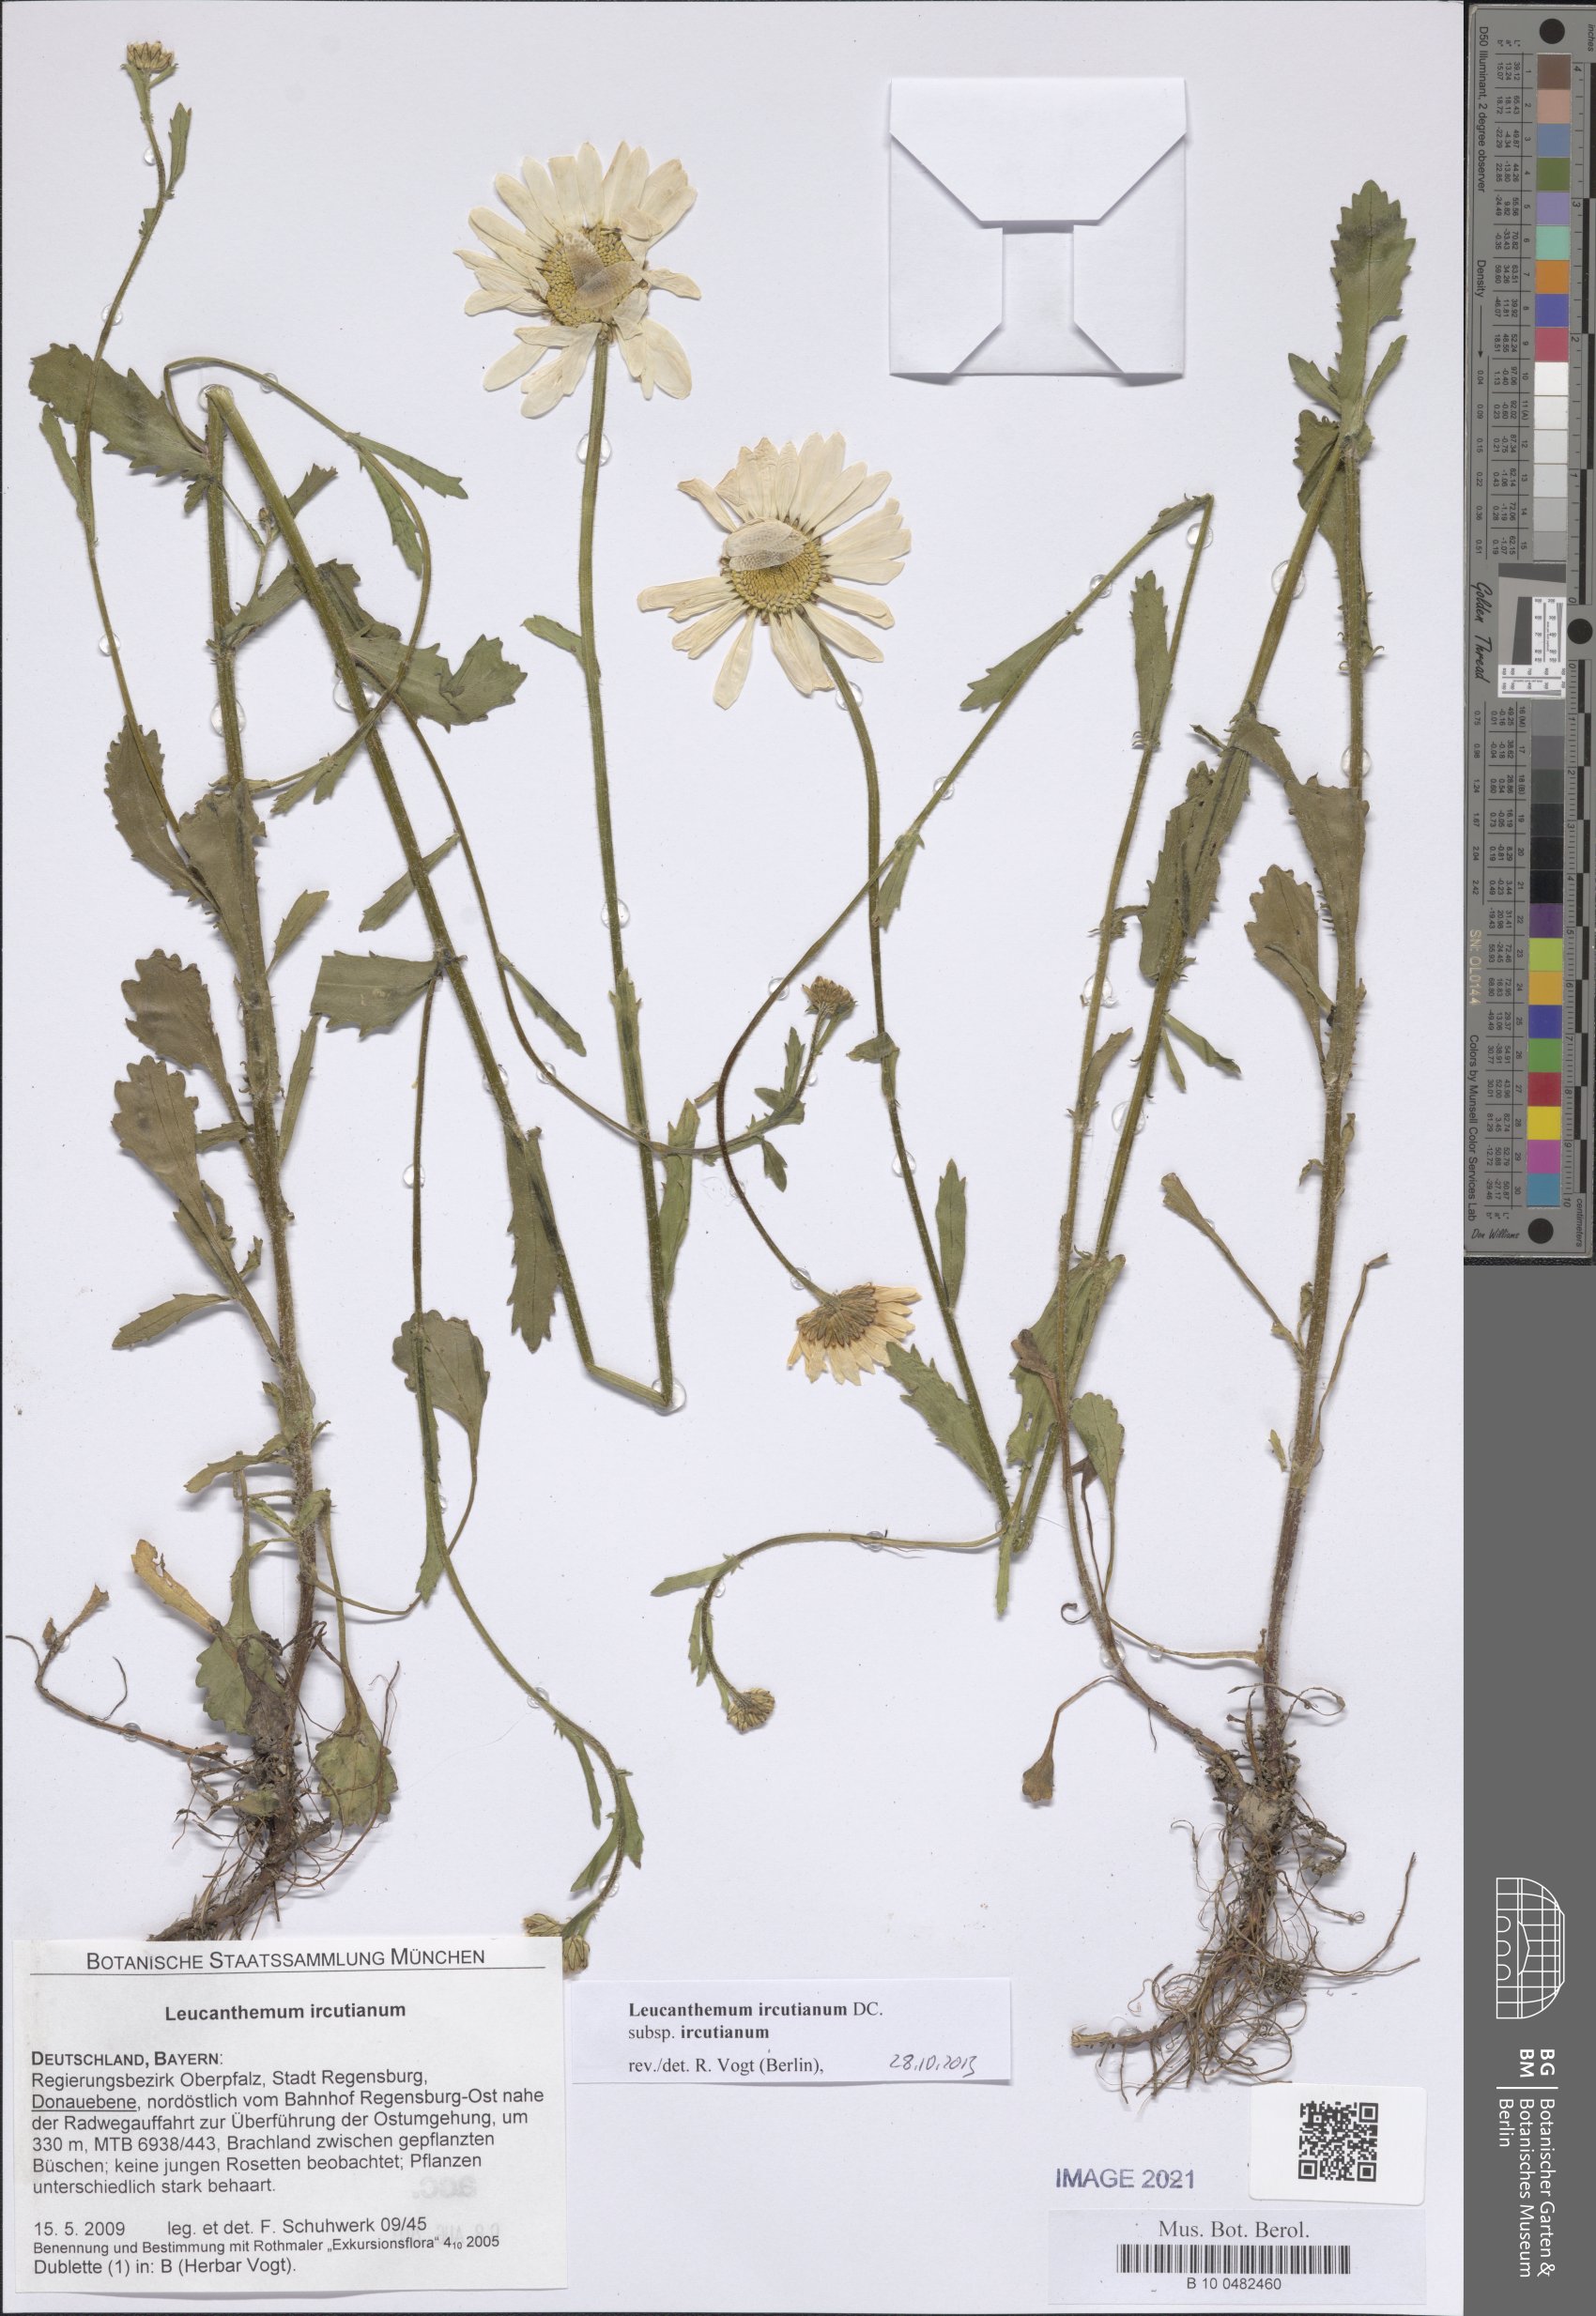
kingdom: Plantae
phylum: Tracheophyta
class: Magnoliopsida
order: Asterales
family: Asteraceae
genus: Leucanthemum
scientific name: Leucanthemum ircutianum
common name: Daisy
